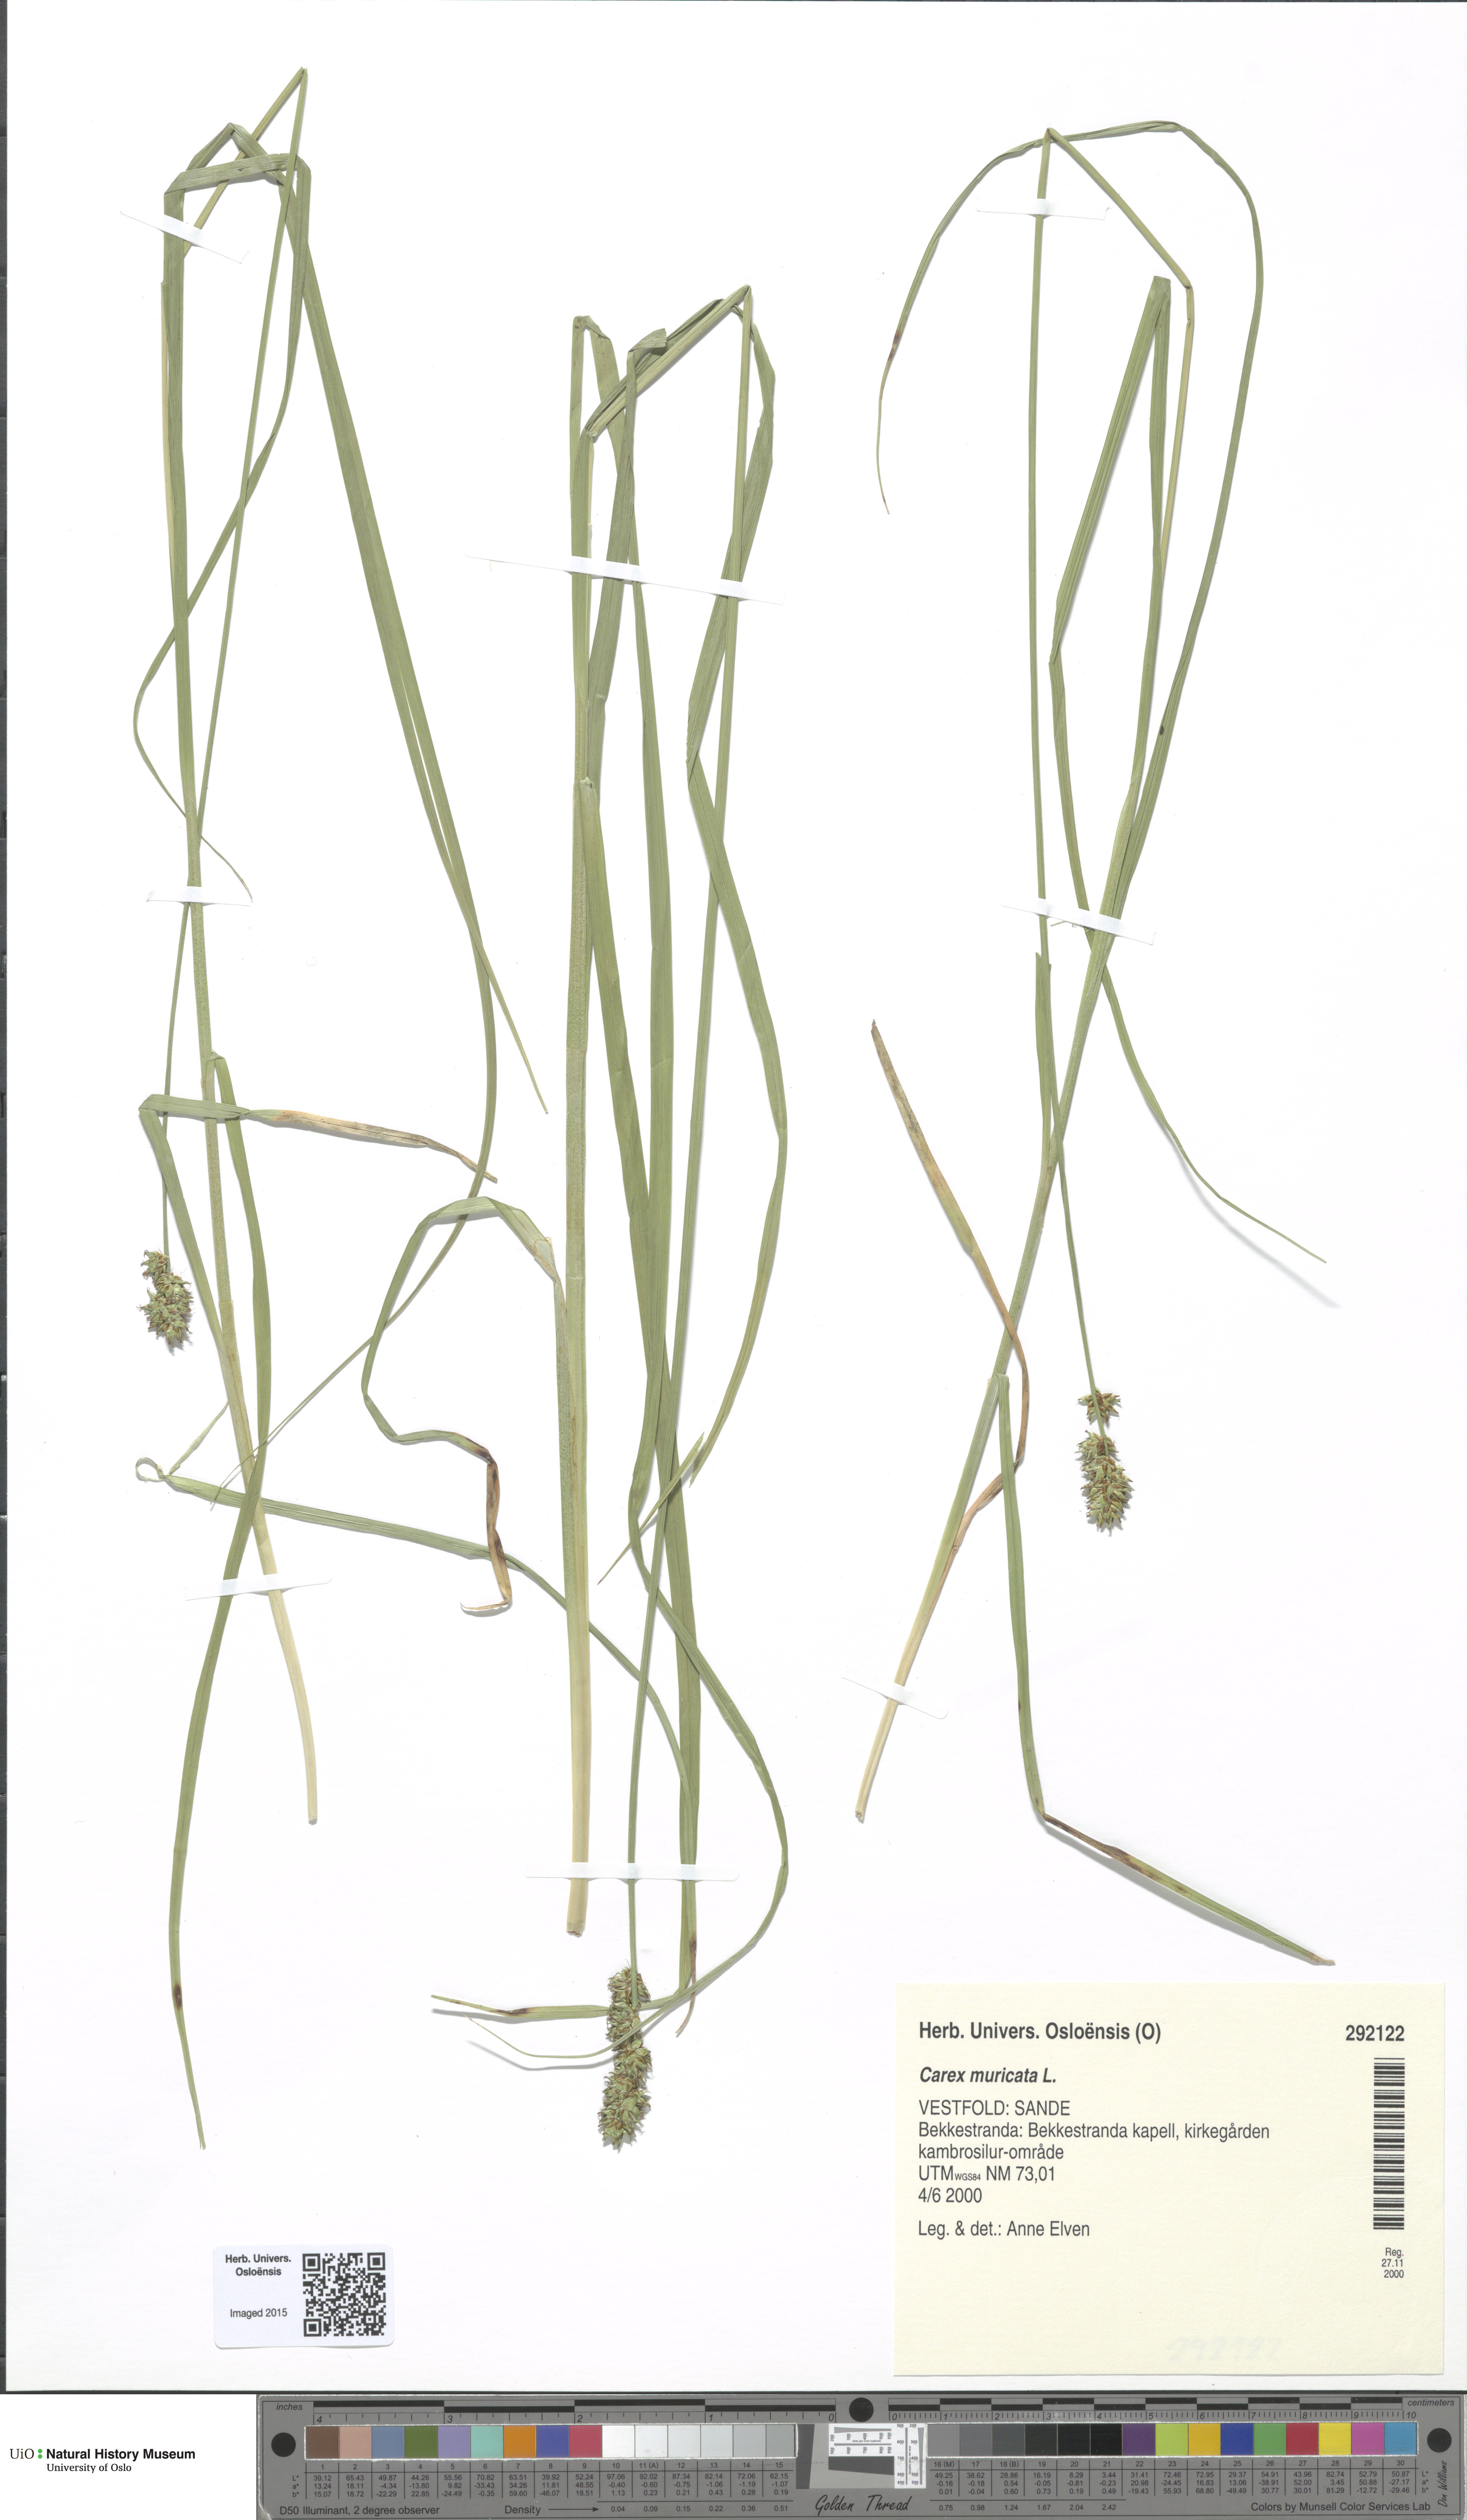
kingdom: Plantae
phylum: Tracheophyta
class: Liliopsida
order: Poales
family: Cyperaceae
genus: Carex
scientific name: Carex muricata
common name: Rough sedge
